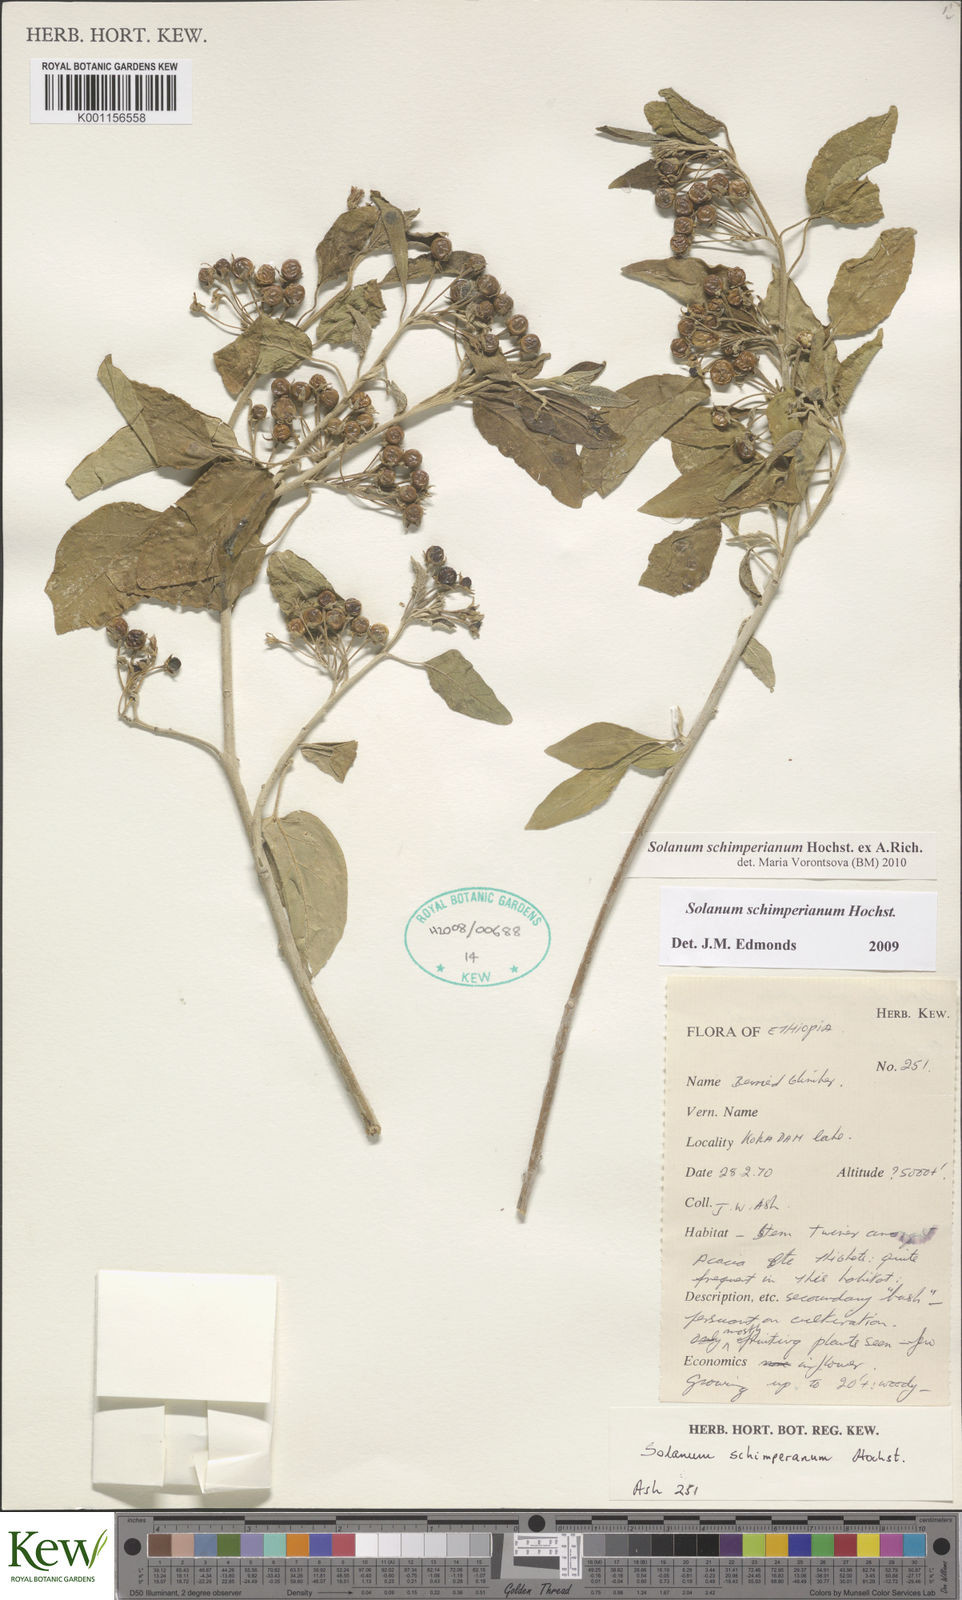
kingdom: Plantae
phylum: Tracheophyta
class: Magnoliopsida
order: Solanales
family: Solanaceae
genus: Solanum
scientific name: Solanum
